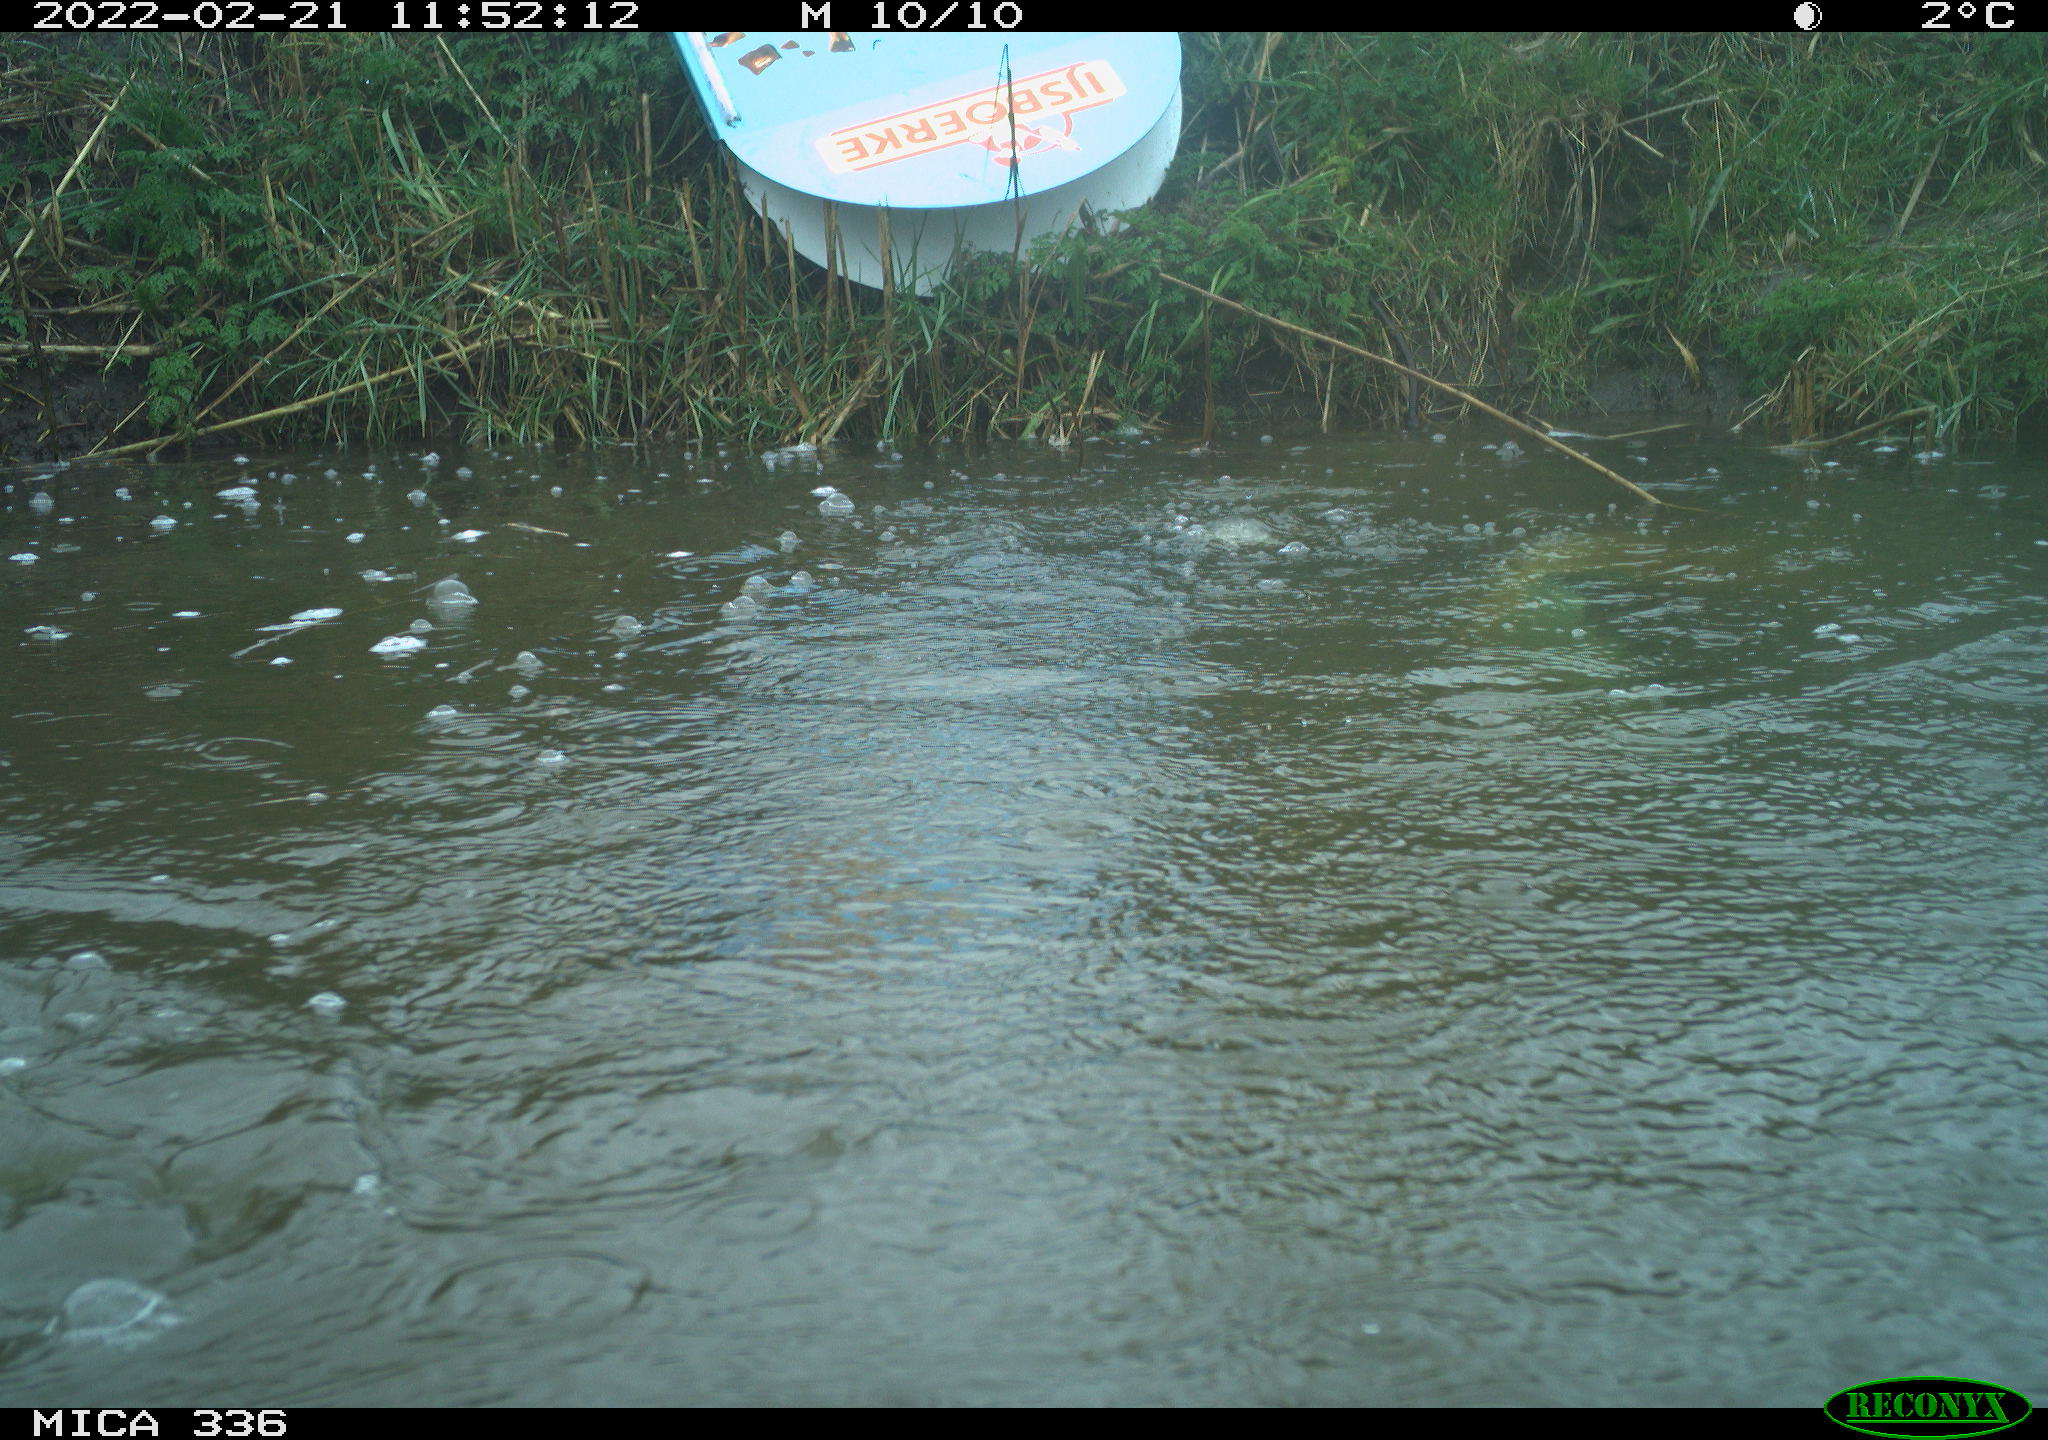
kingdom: Animalia
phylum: Chordata
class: Aves
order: Podicipediformes
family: Podicipedidae
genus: Podiceps
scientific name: Podiceps cristatus
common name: Great crested grebe
